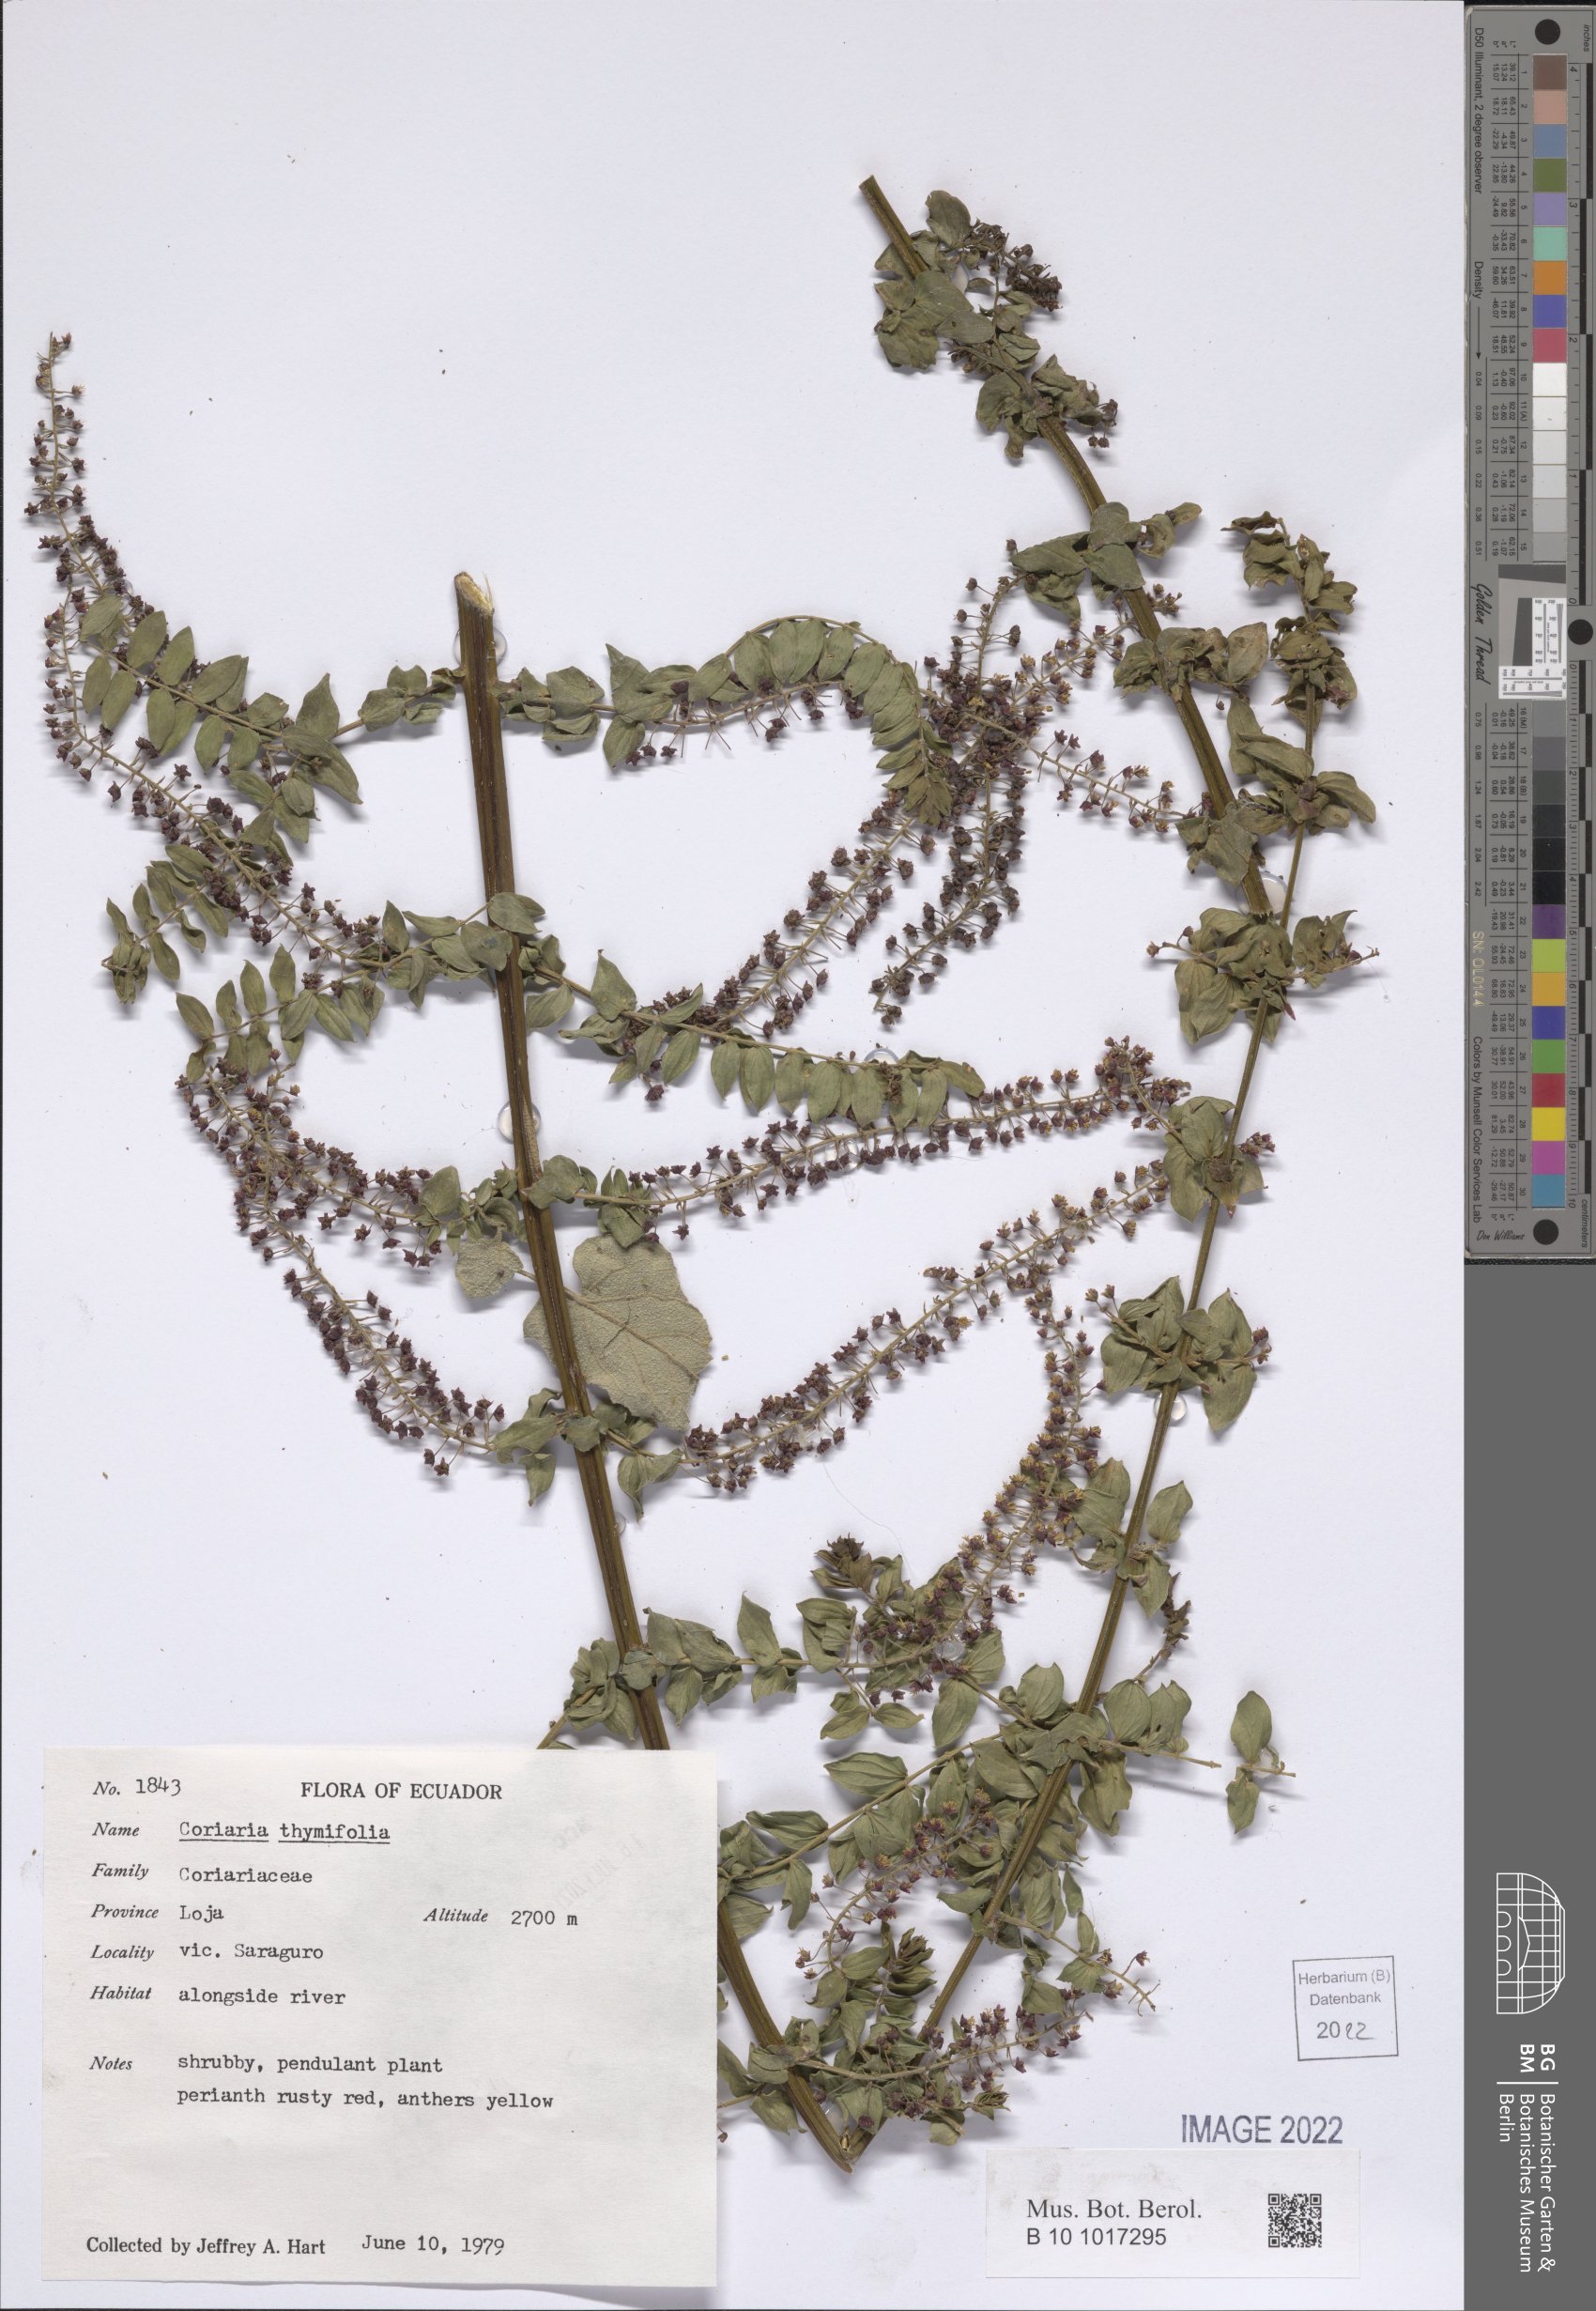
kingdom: Plantae
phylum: Tracheophyta
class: Magnoliopsida
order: Cucurbitales
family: Coriariaceae
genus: Coriaria
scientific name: Coriaria microphylla
